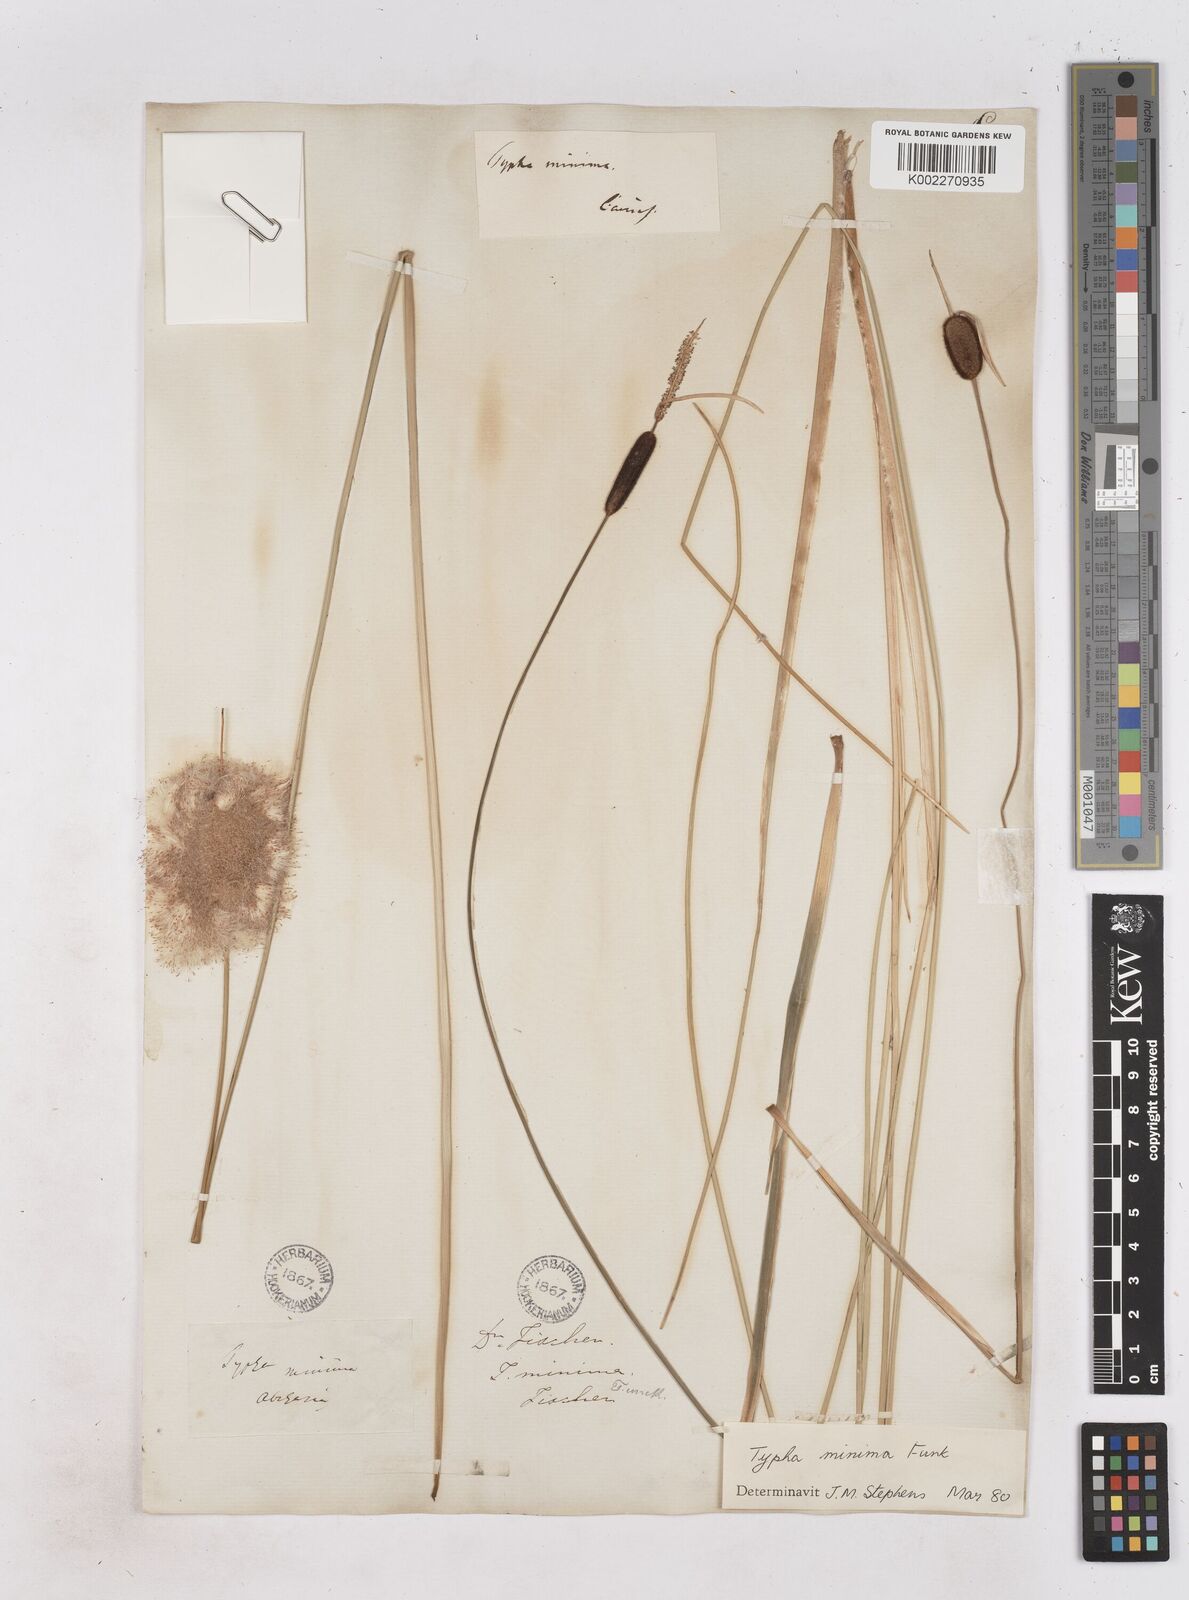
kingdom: Plantae
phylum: Tracheophyta
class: Liliopsida
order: Poales
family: Typhaceae
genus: Typha
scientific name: Typha
